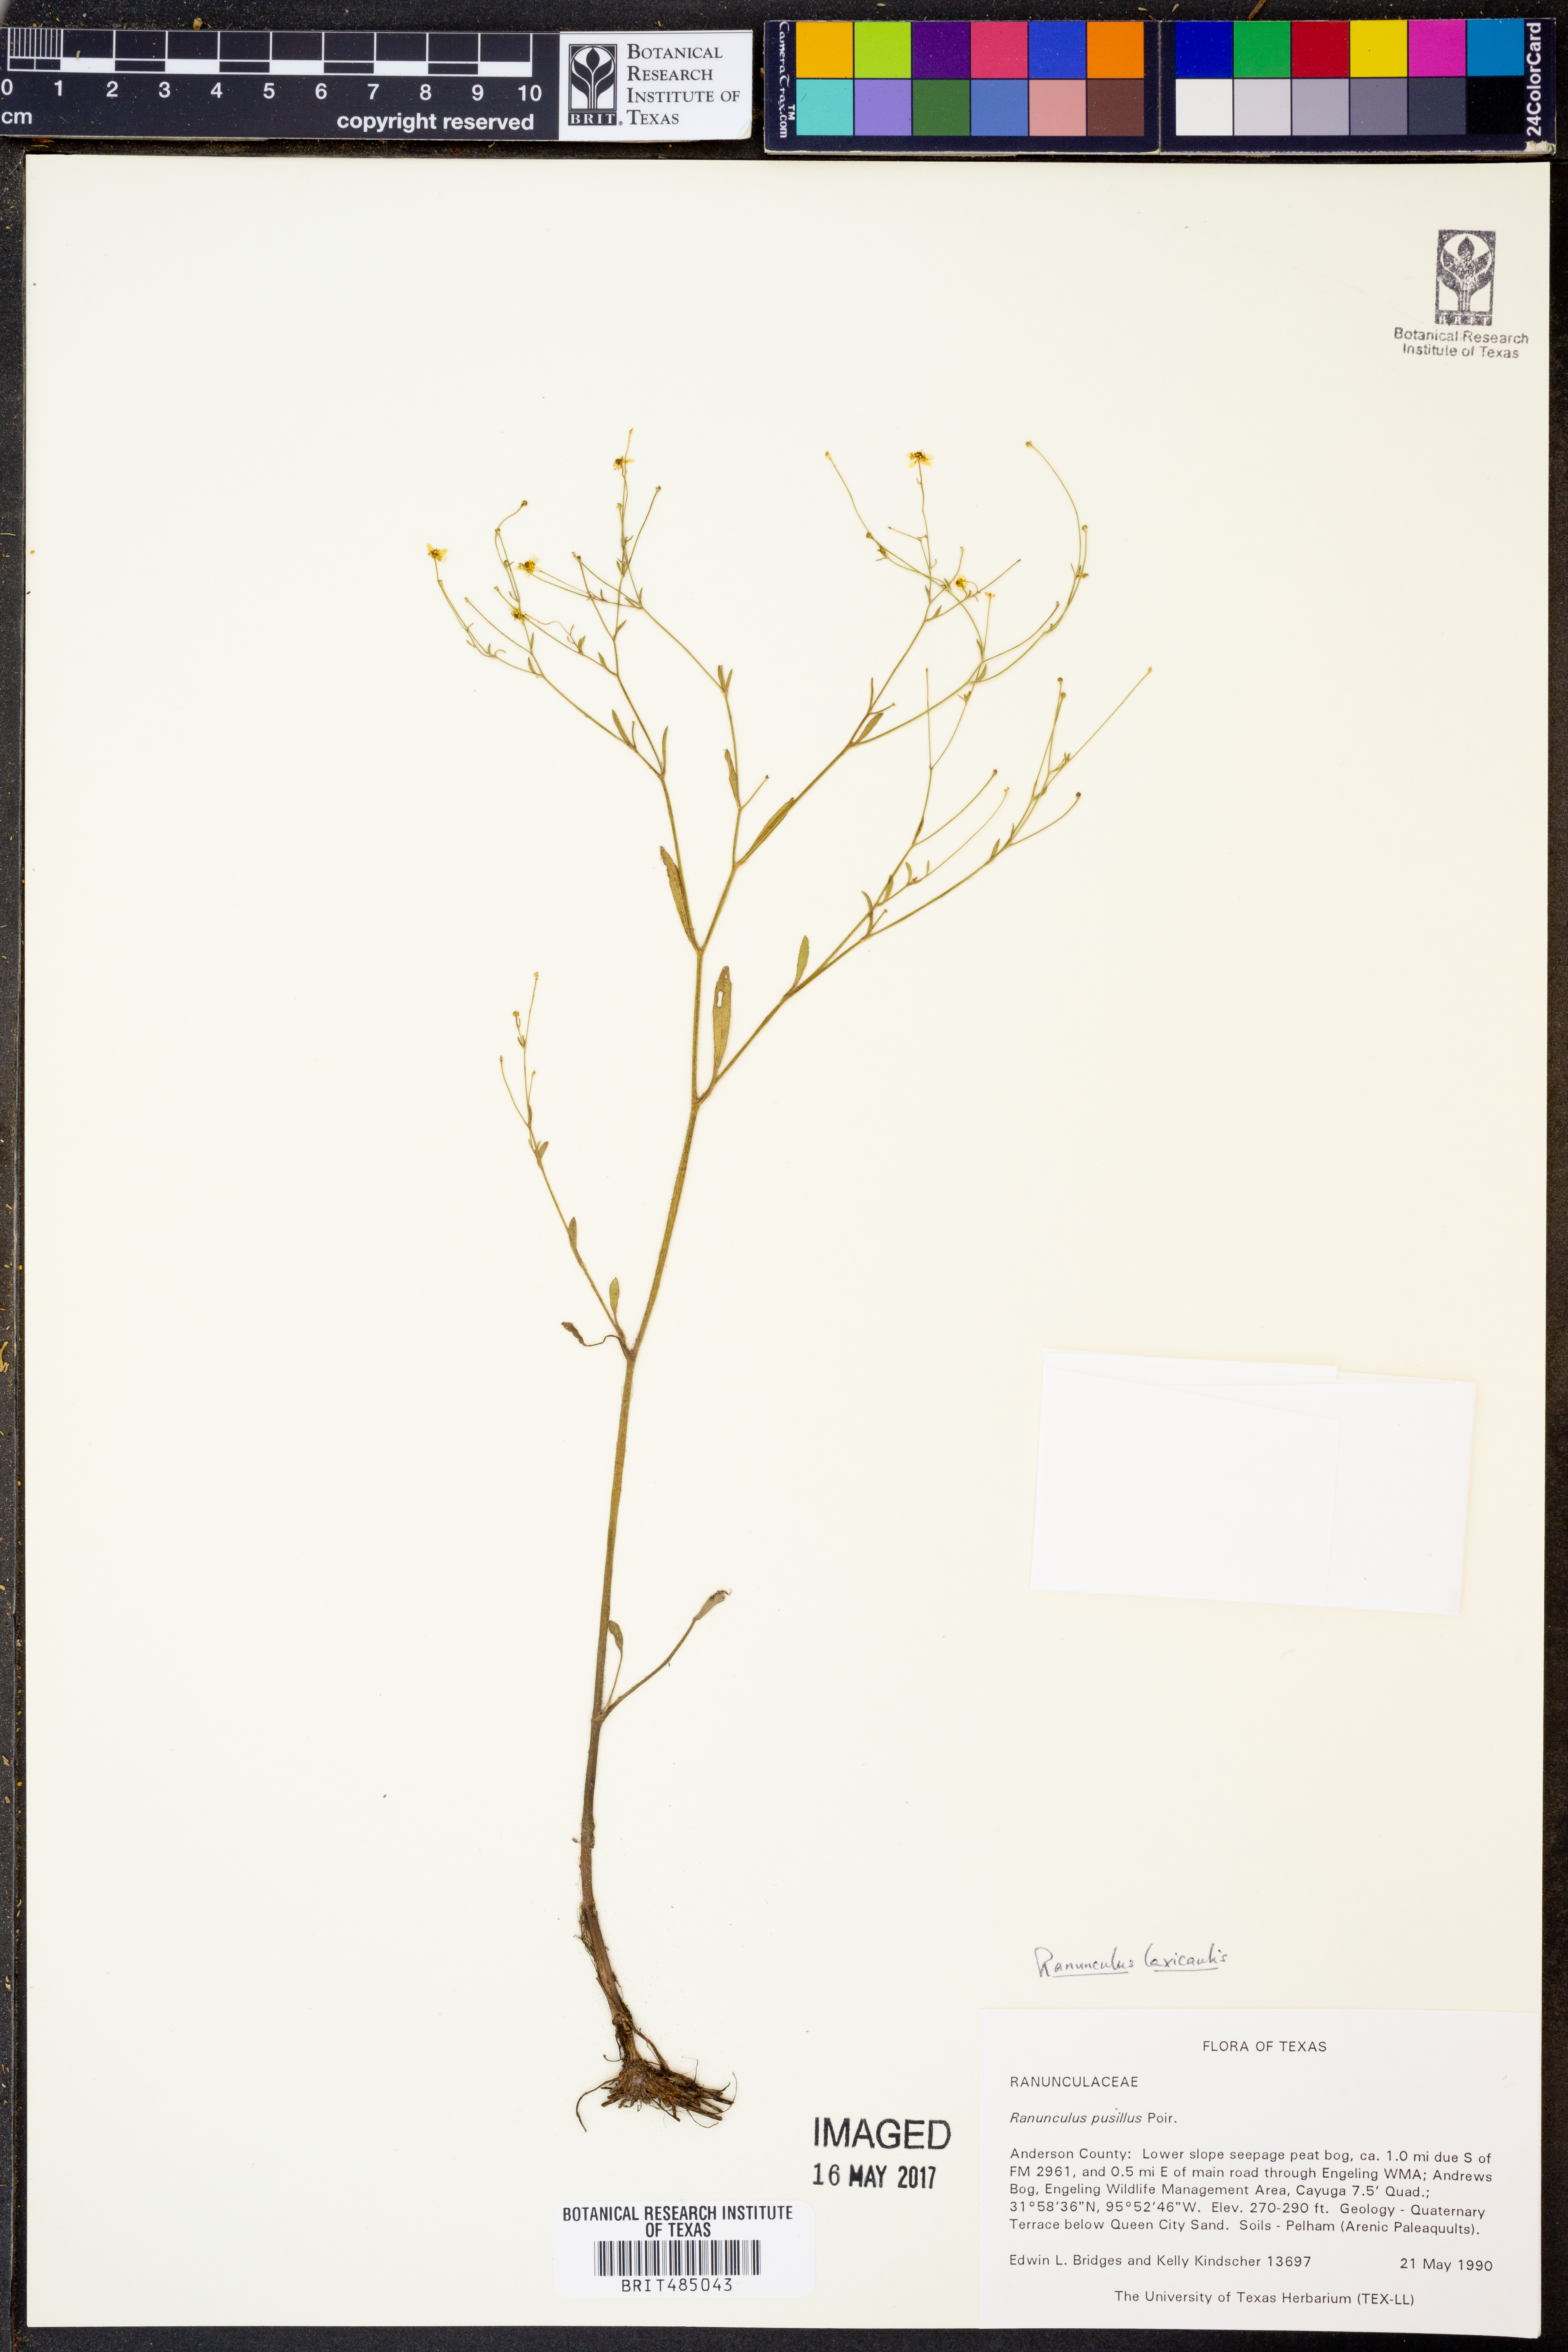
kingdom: Plantae
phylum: Tracheophyta
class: Magnoliopsida
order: Ranunculales
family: Ranunculaceae
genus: Ranunculus
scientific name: Ranunculus laxicaulis
